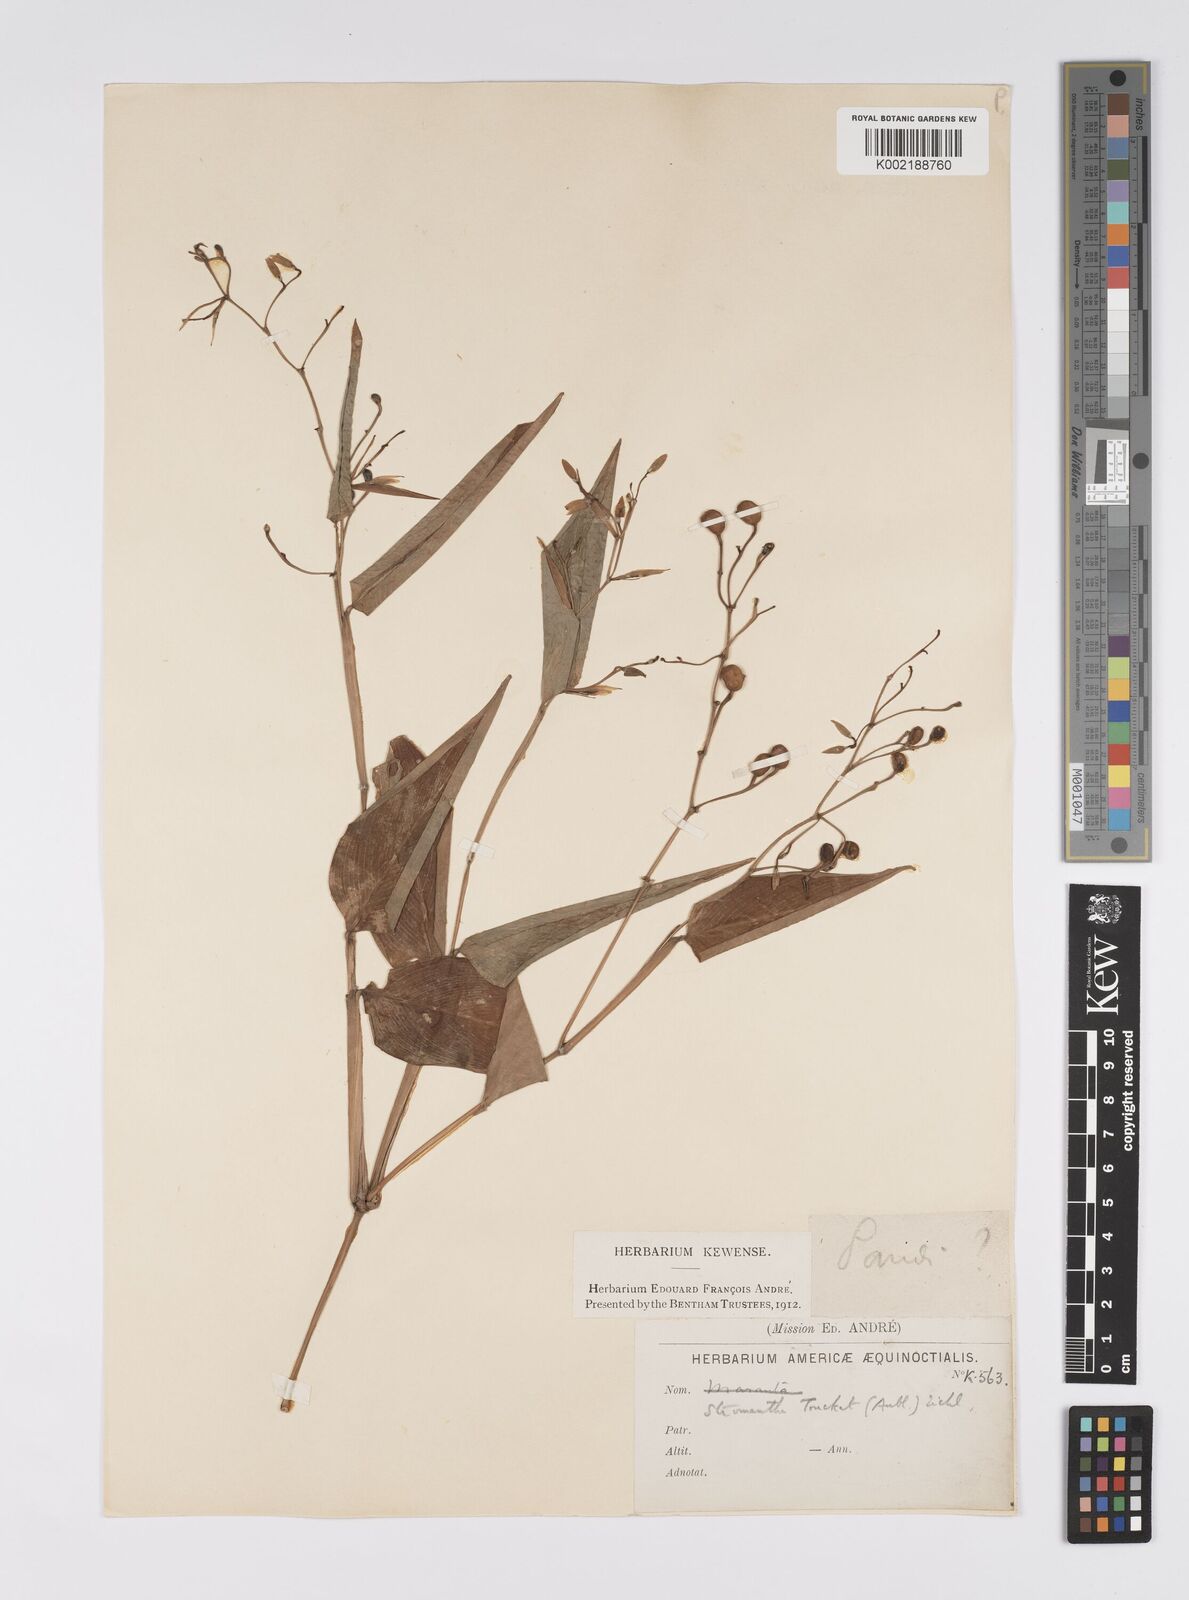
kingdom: Plantae
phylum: Tracheophyta
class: Liliopsida
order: Zingiberales
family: Marantaceae
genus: Stromanthe
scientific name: Stromanthe tonckat
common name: Stromanthe
